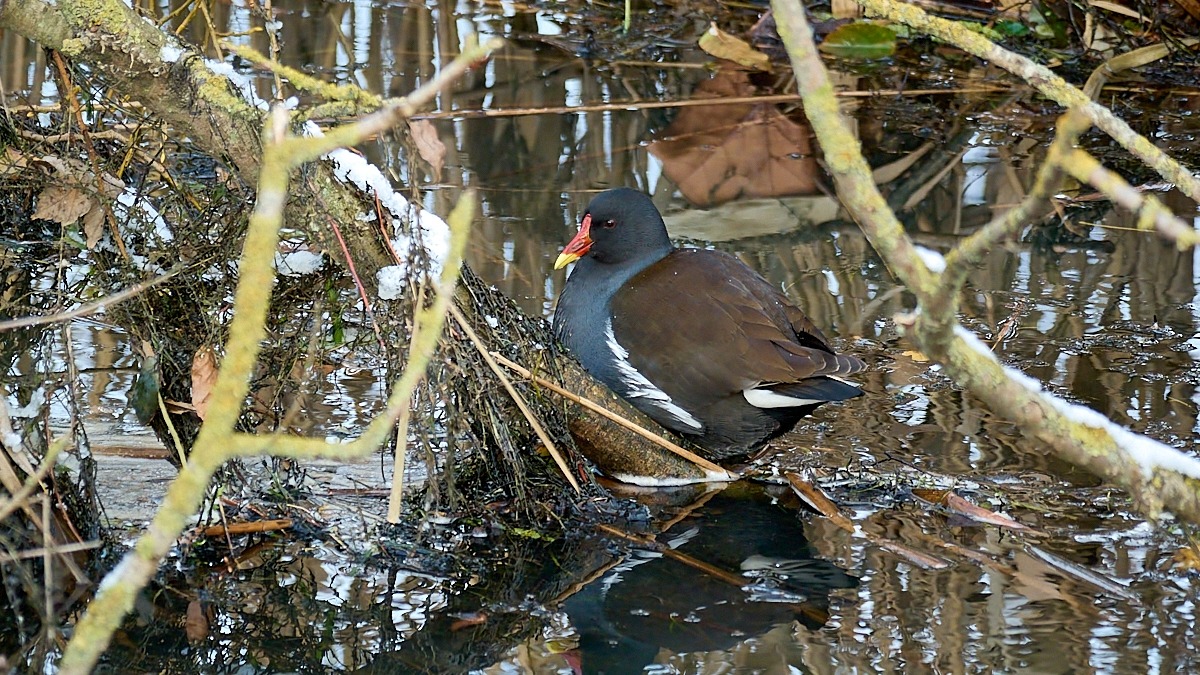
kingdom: Animalia
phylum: Chordata
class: Aves
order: Gruiformes
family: Rallidae
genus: Gallinula
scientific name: Gallinula chloropus
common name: Grønbenet rørhøne
